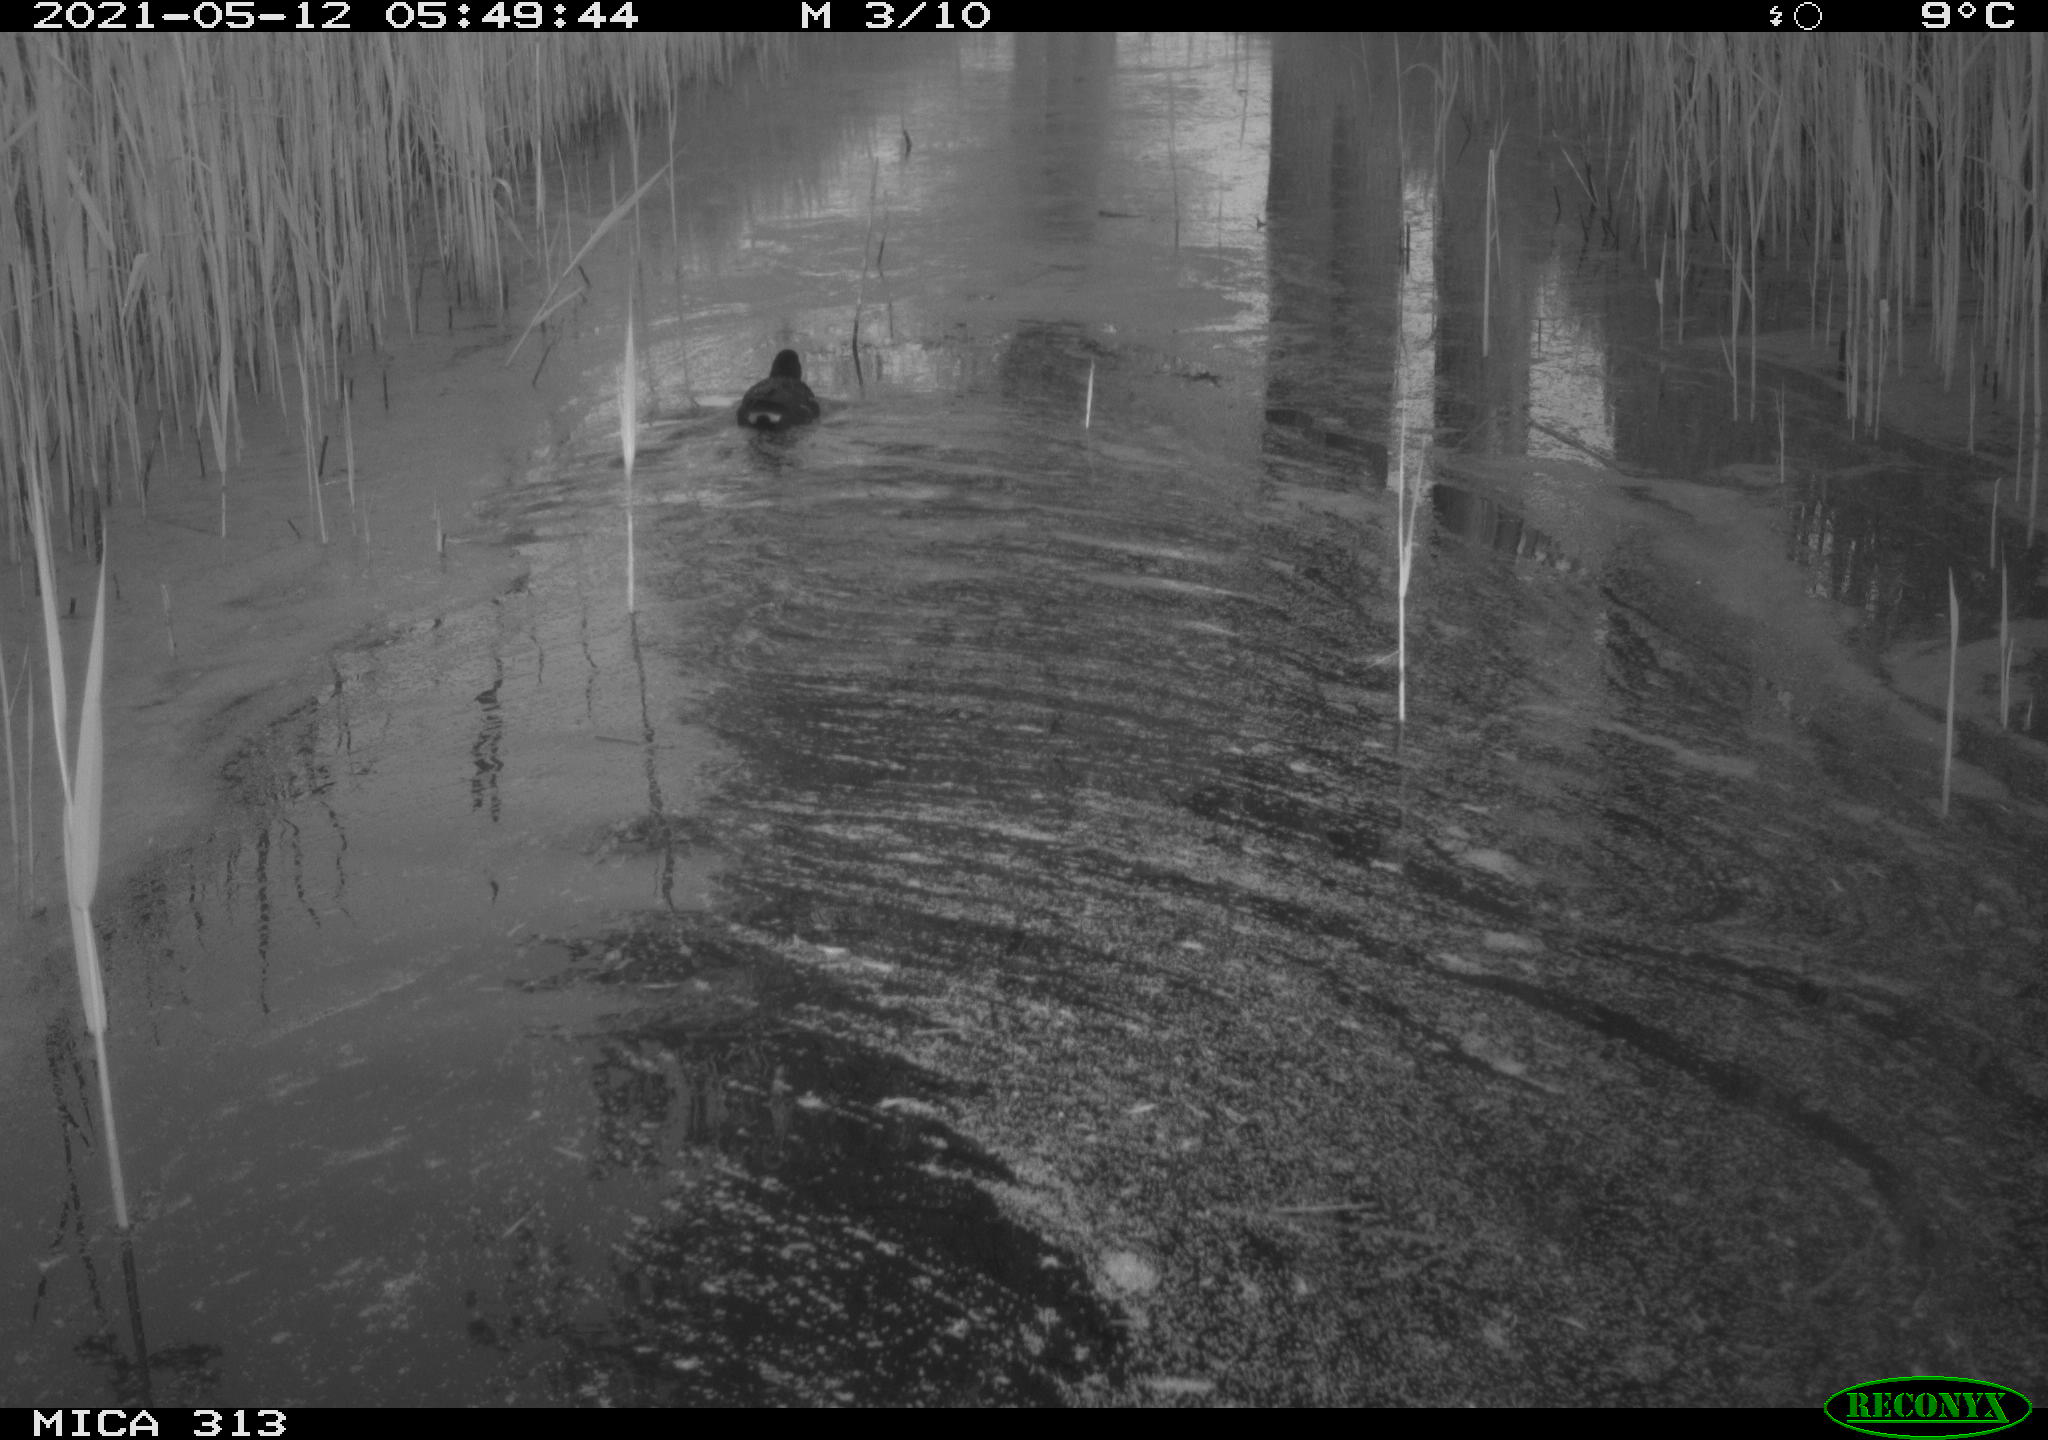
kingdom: Animalia
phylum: Chordata
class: Aves
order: Gruiformes
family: Rallidae
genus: Gallinula
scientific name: Gallinula chloropus
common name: Common moorhen
